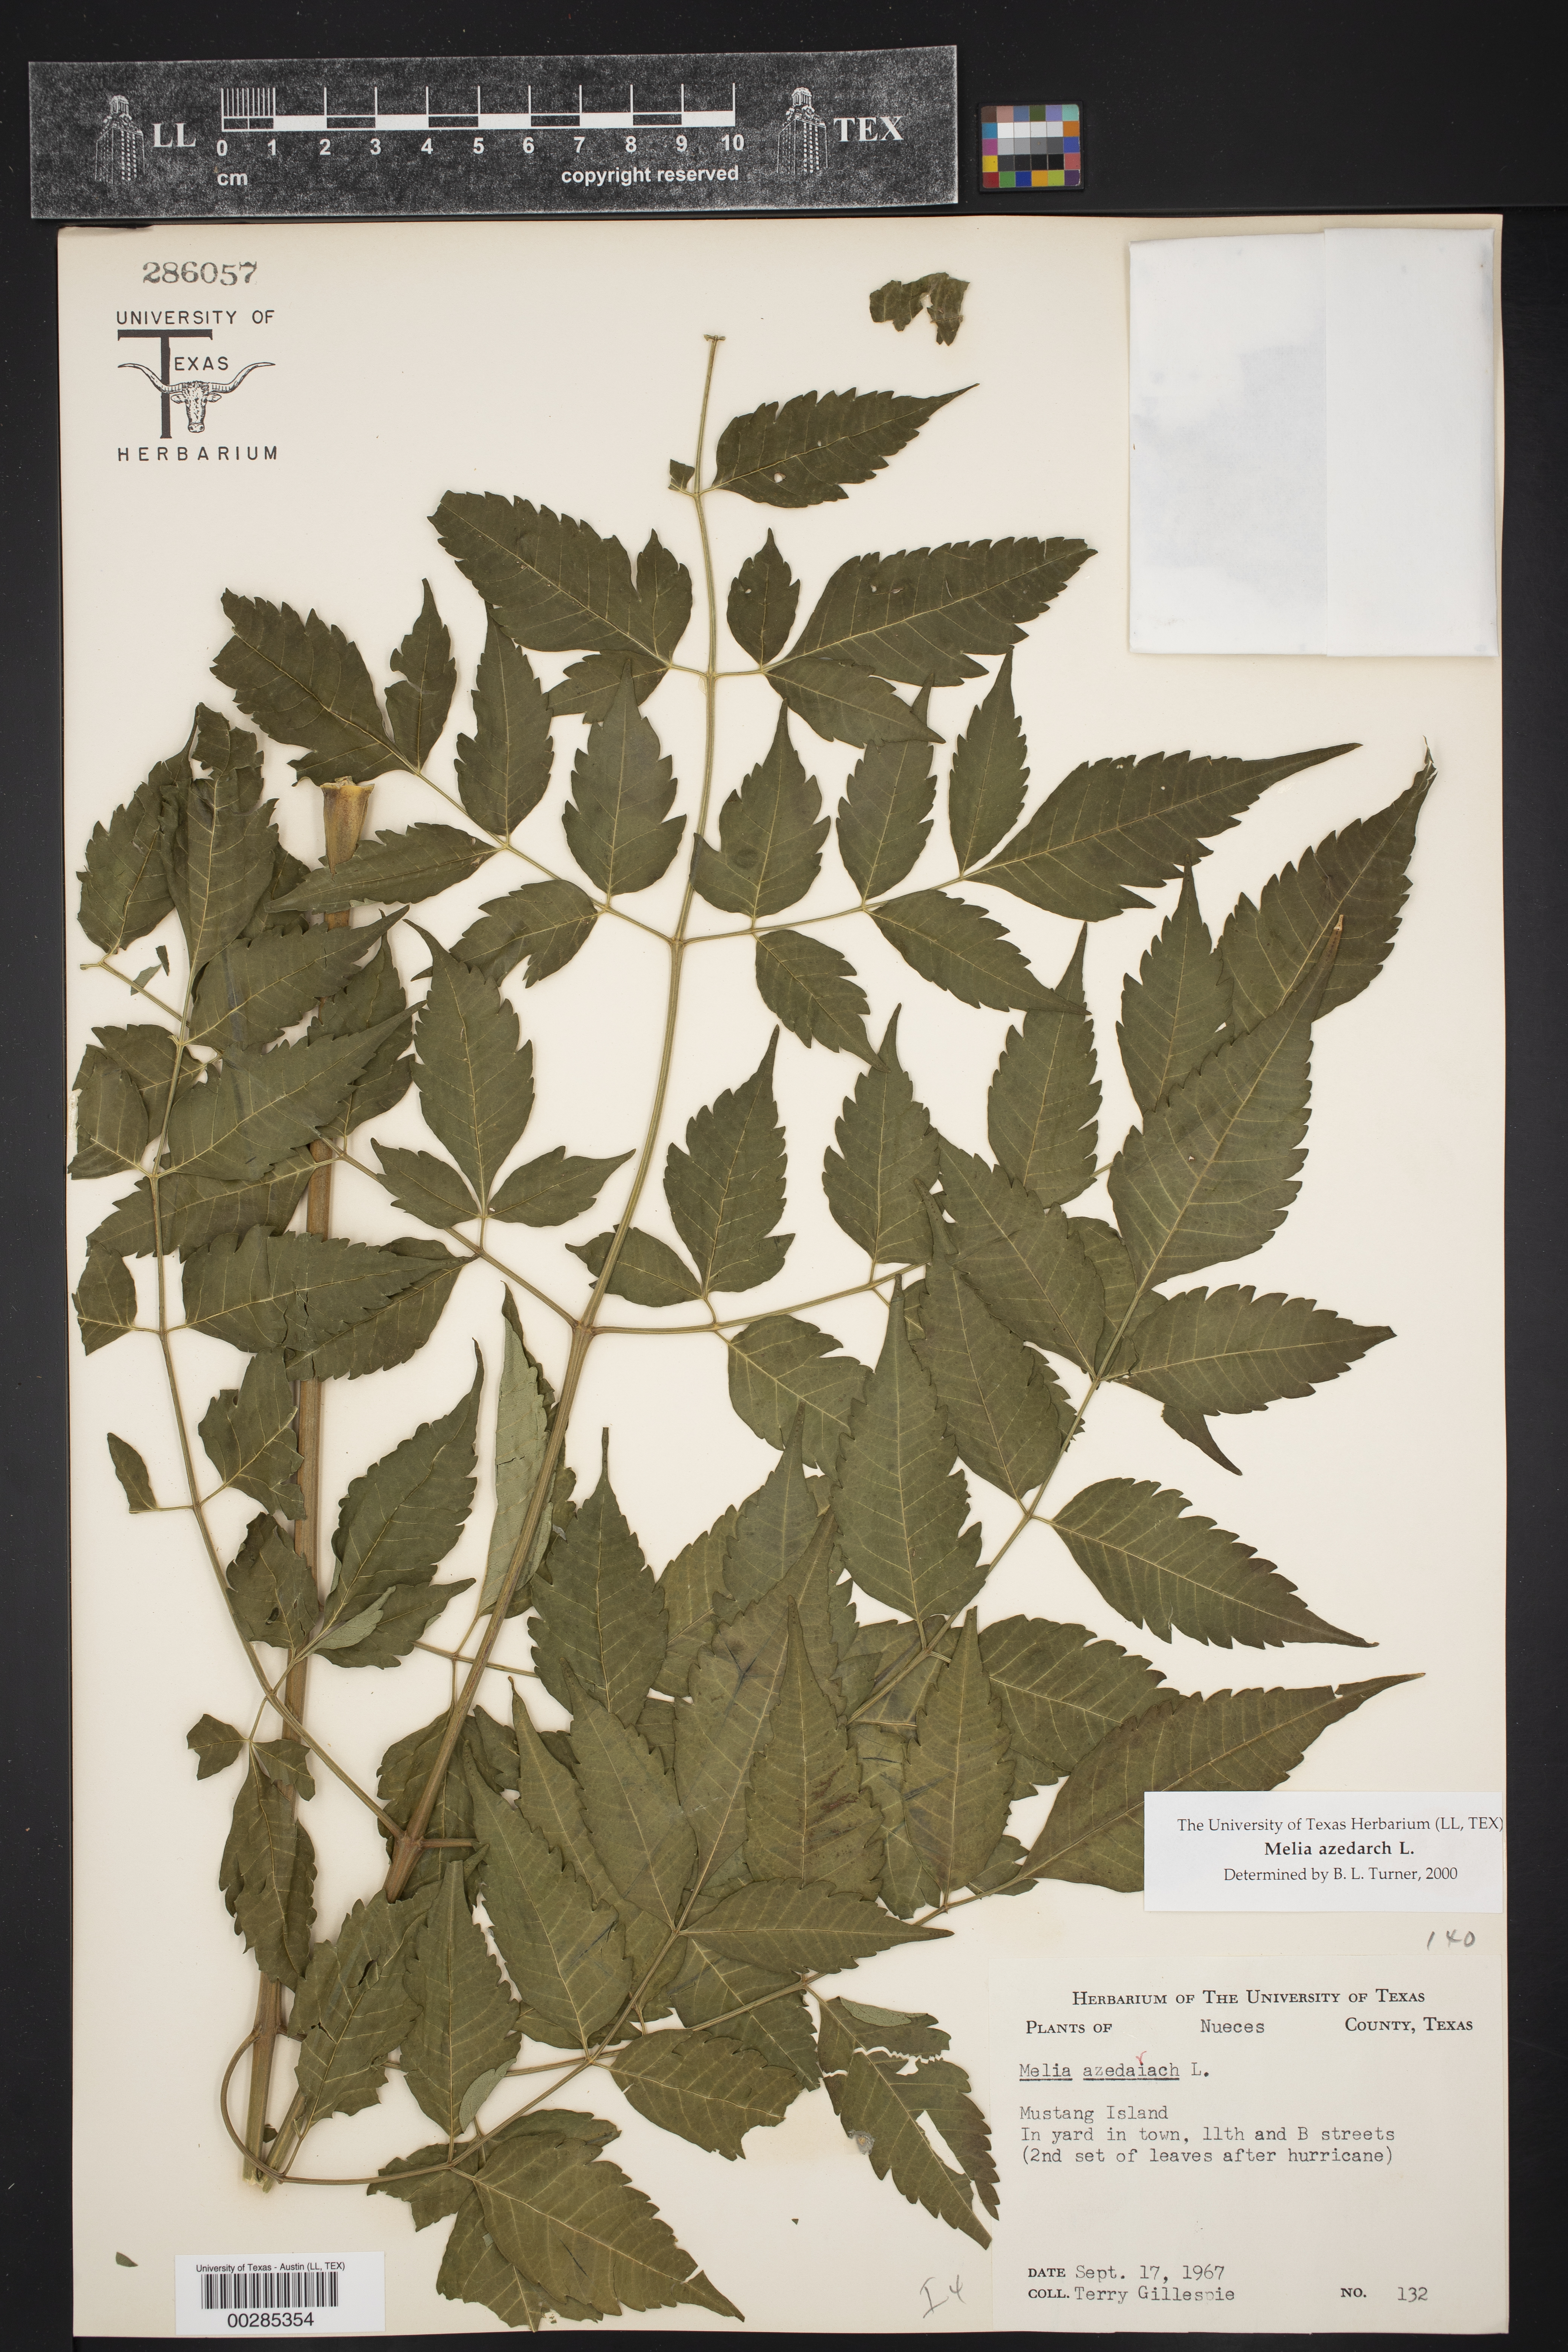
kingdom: Plantae
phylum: Tracheophyta
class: Magnoliopsida
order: Sapindales
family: Meliaceae
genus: Melia
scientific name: Melia azedarach
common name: Chinaberrytree
